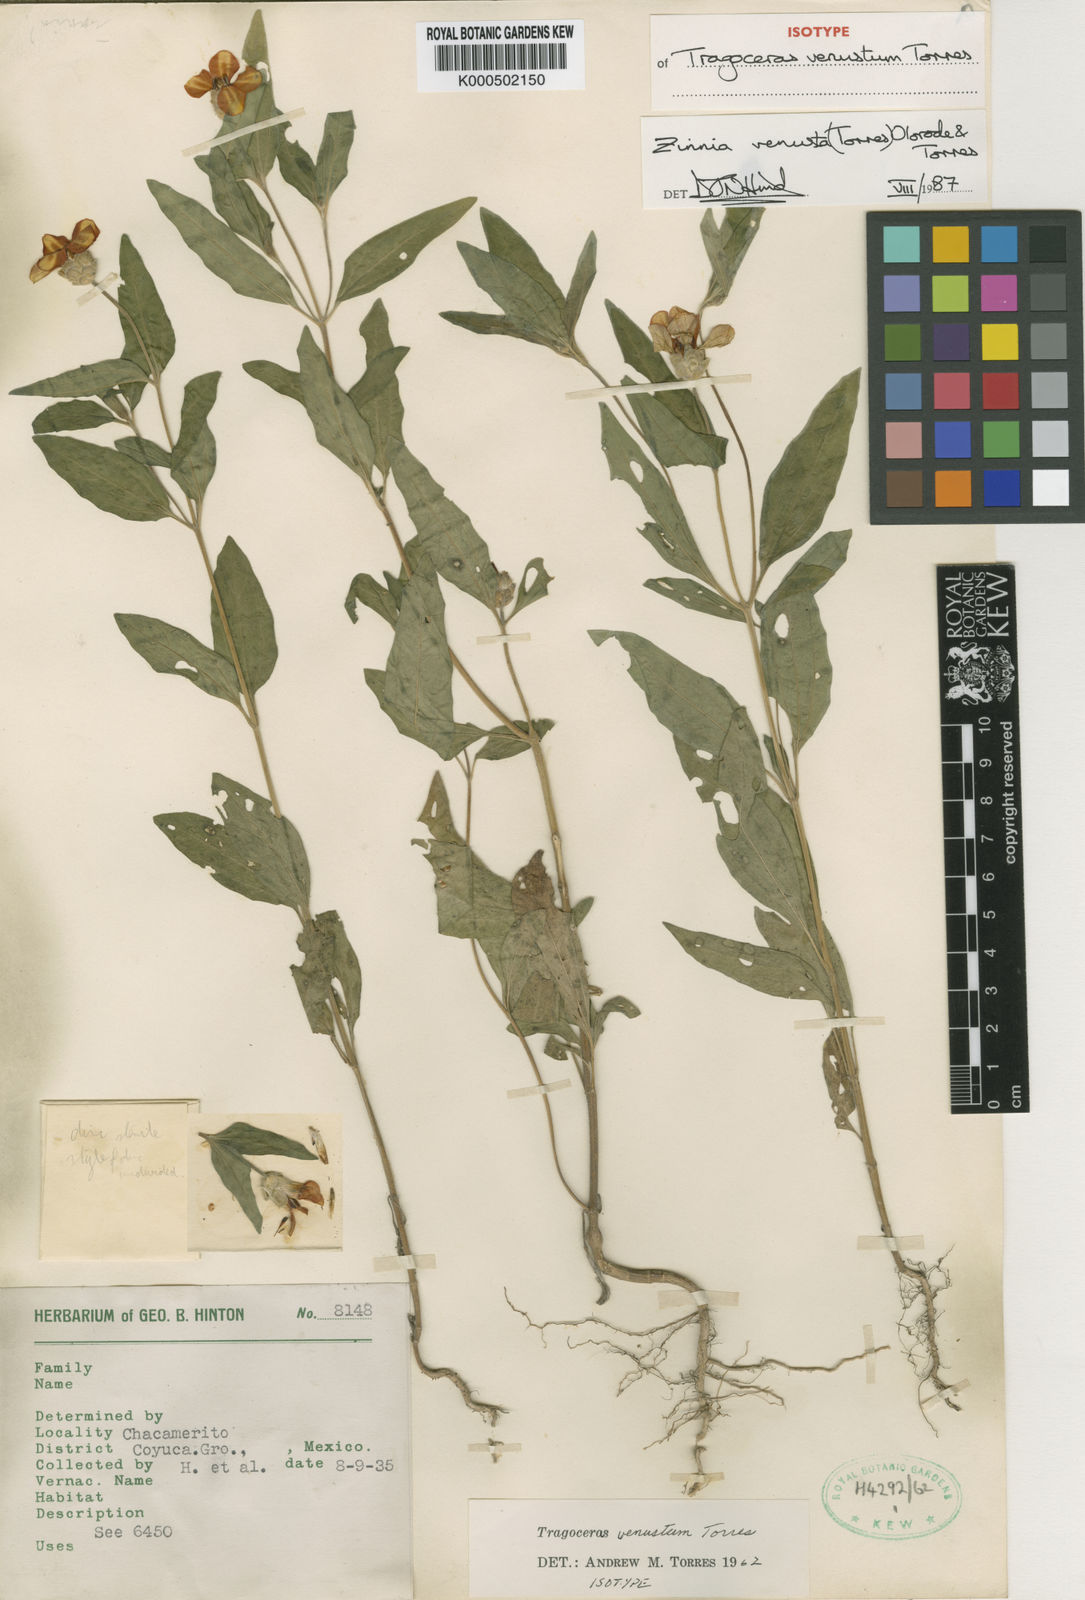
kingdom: Plantae
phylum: Tracheophyta
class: Magnoliopsida
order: Asterales
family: Asteraceae
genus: Zinnia
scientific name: Zinnia venusta
